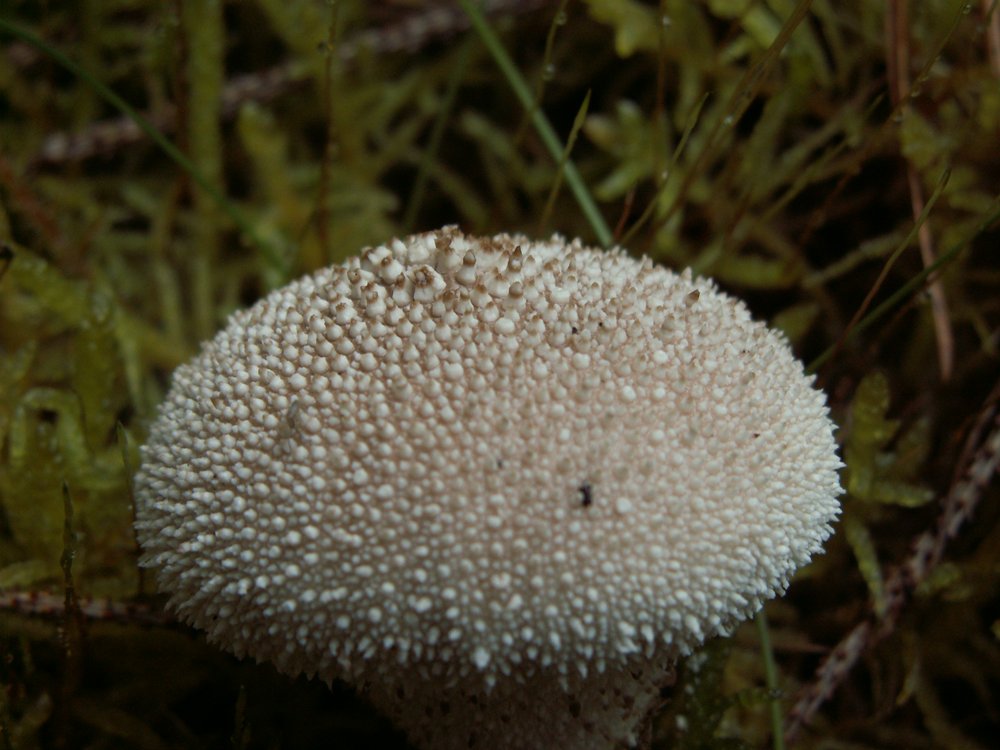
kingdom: Fungi
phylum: Basidiomycota
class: Agaricomycetes
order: Agaricales
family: Lycoperdaceae
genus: Lycoperdon
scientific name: Lycoperdon perlatum
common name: krystal-støvbold
